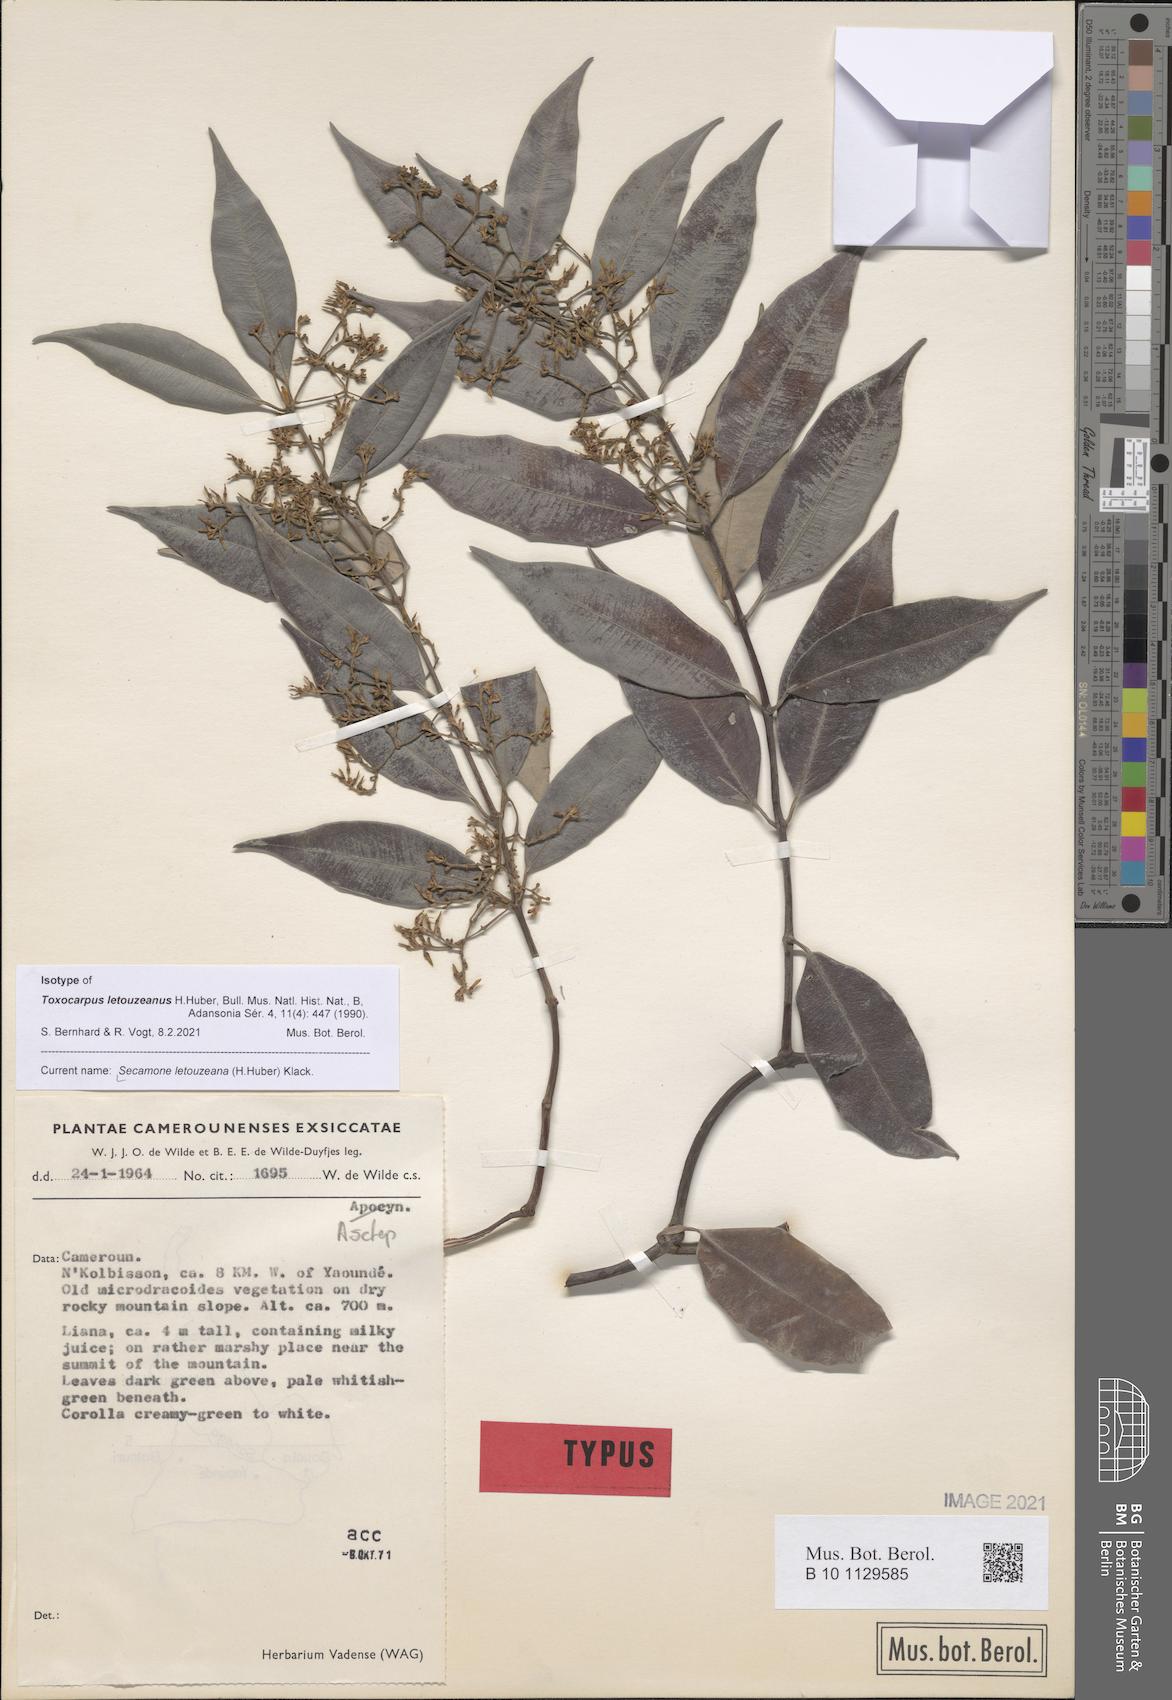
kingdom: Plantae
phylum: Tracheophyta
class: Magnoliopsida
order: Gentianales
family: Apocynaceae
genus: Secamone
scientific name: Secamone letouzeana
